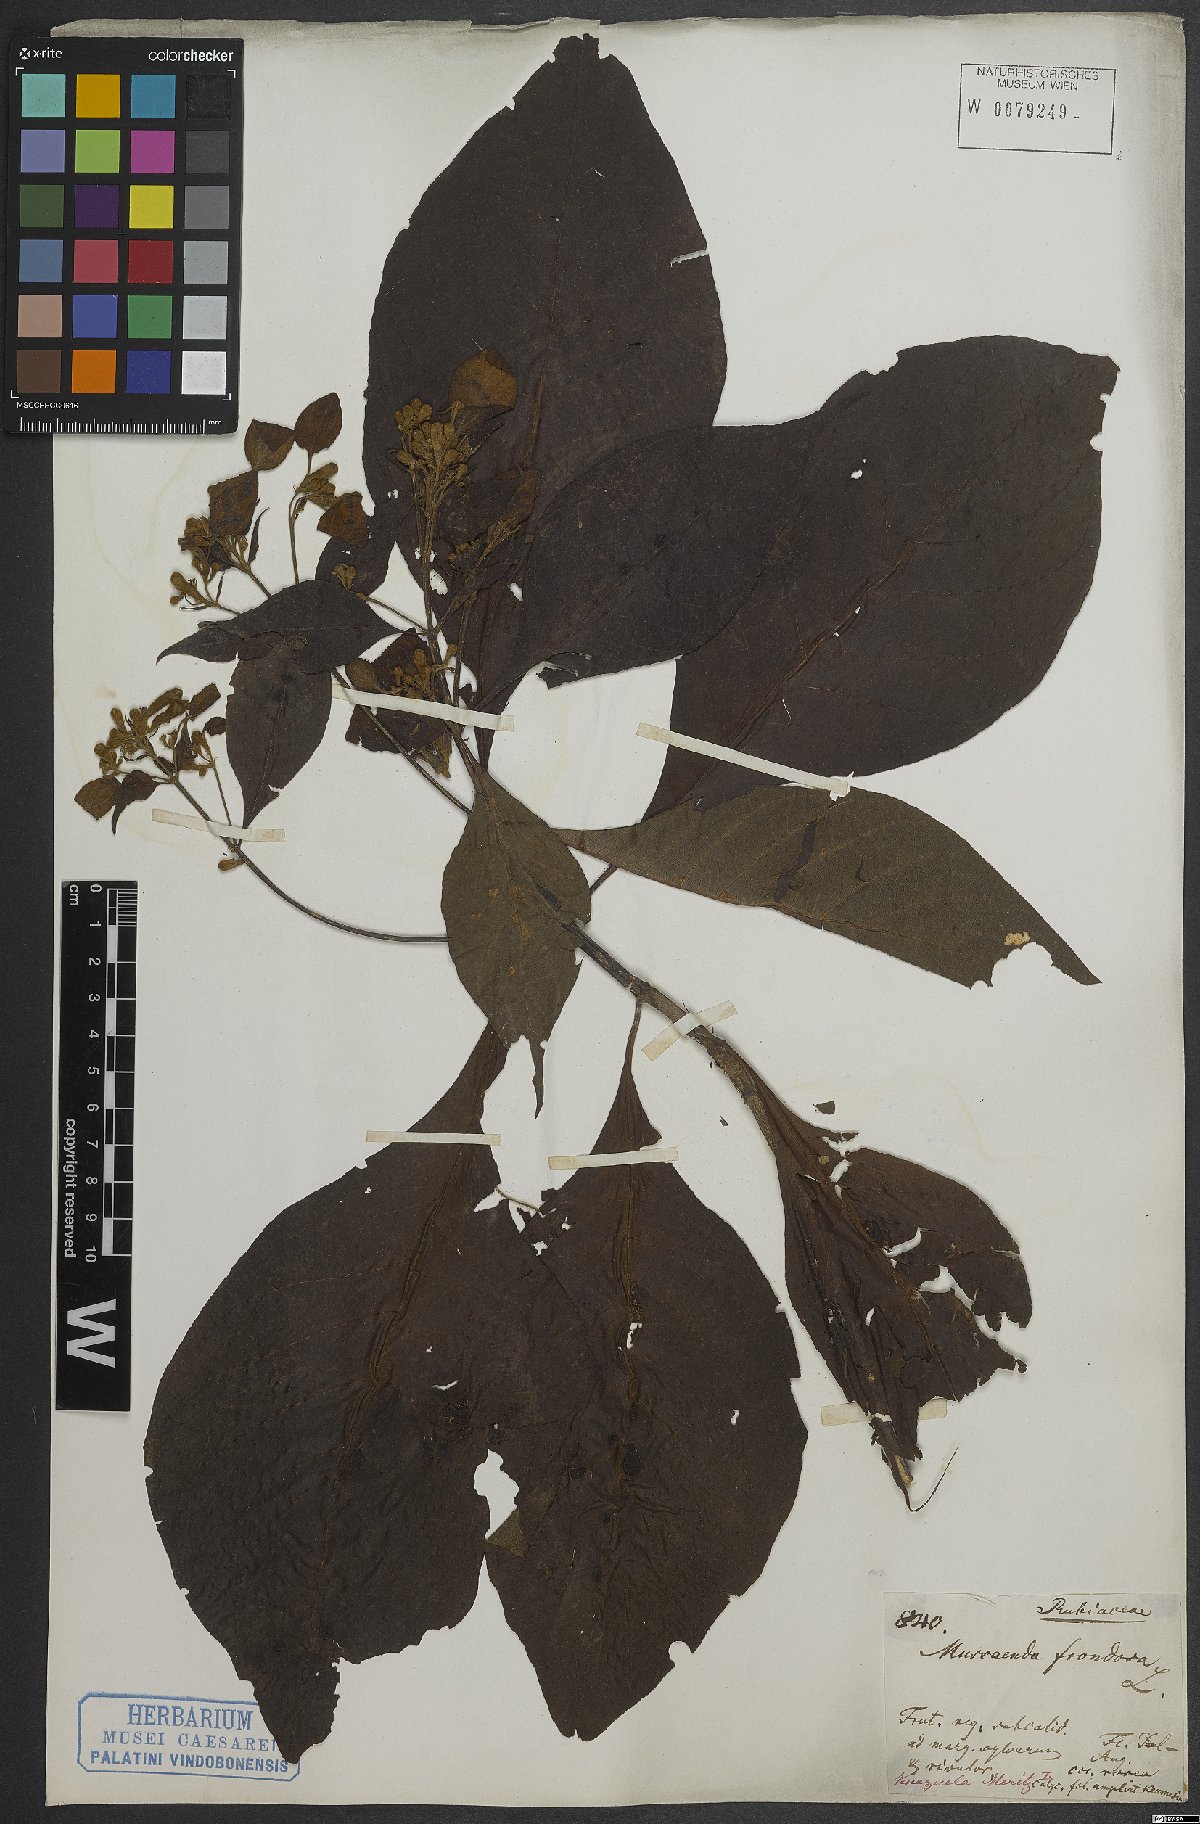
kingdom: Plantae
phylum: Tracheophyta
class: Magnoliopsida
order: Gentianales
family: Rubiaceae
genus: Pogonopus
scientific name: Pogonopus speciosus
